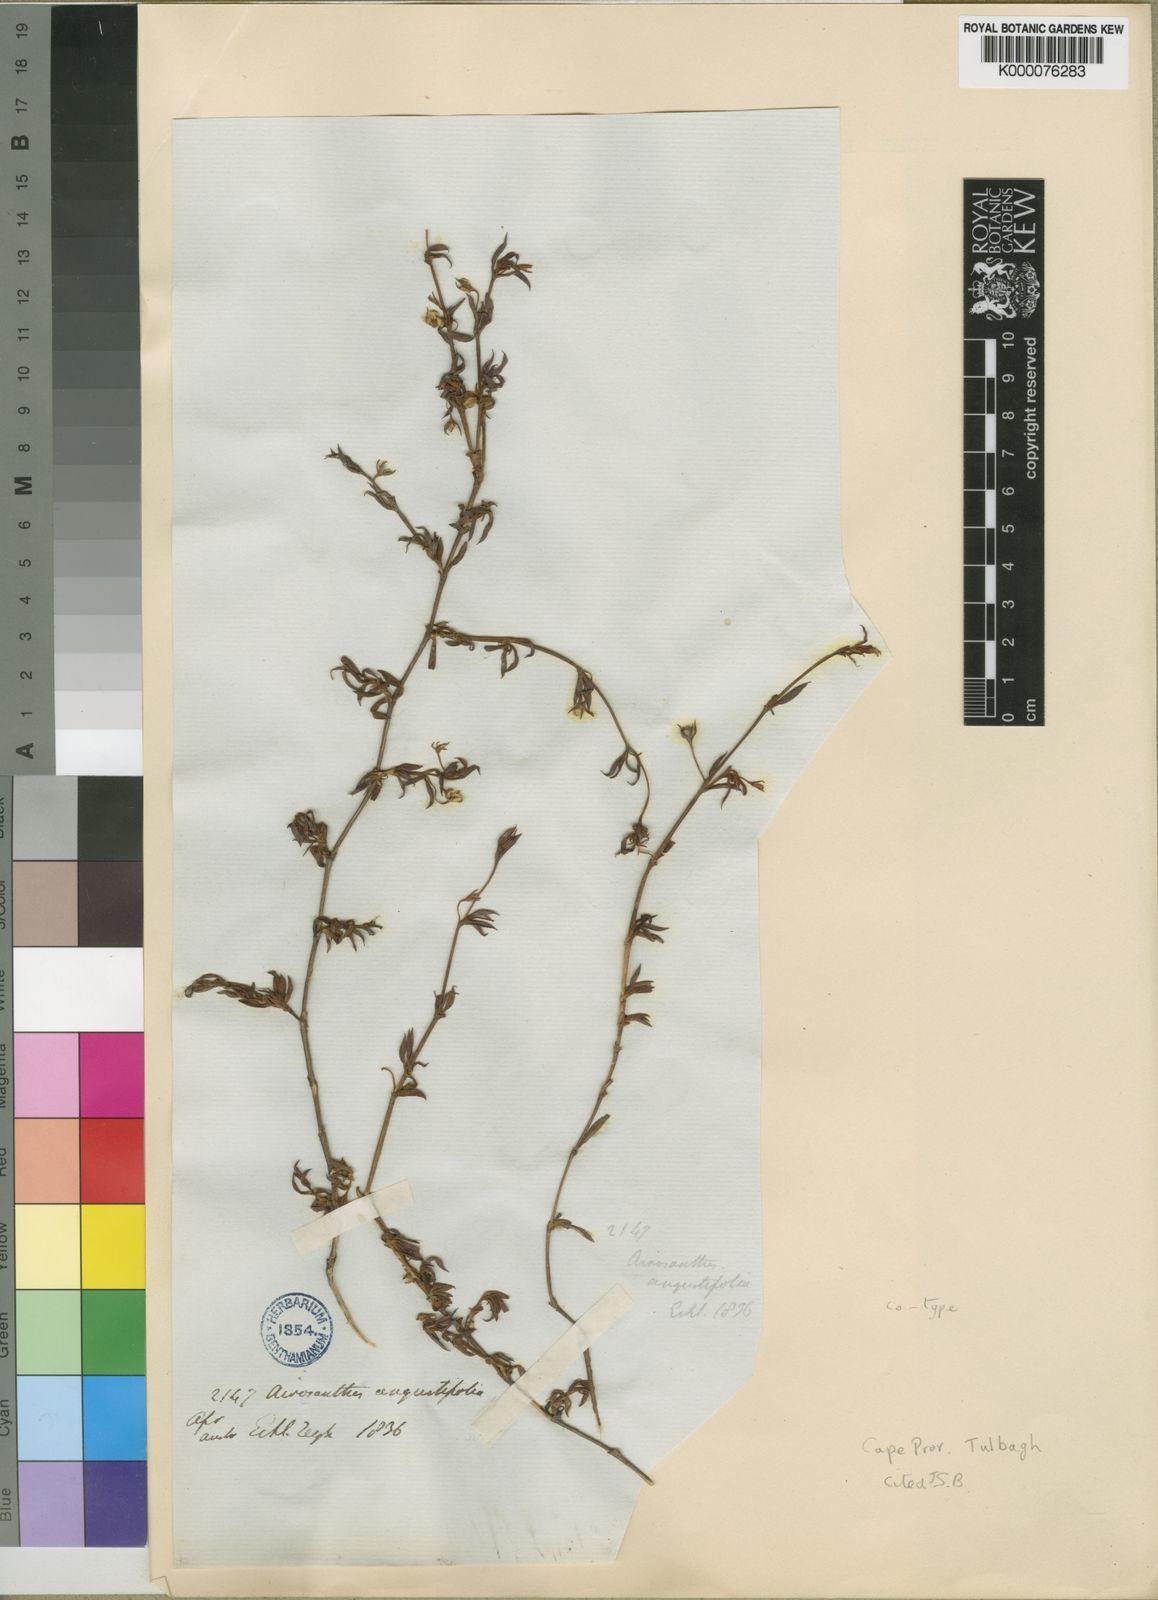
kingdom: Plantae
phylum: Tracheophyta
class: Magnoliopsida
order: Caryophyllales
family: Aizoaceae
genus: Acrosanthes
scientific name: Acrosanthes angustifolia
